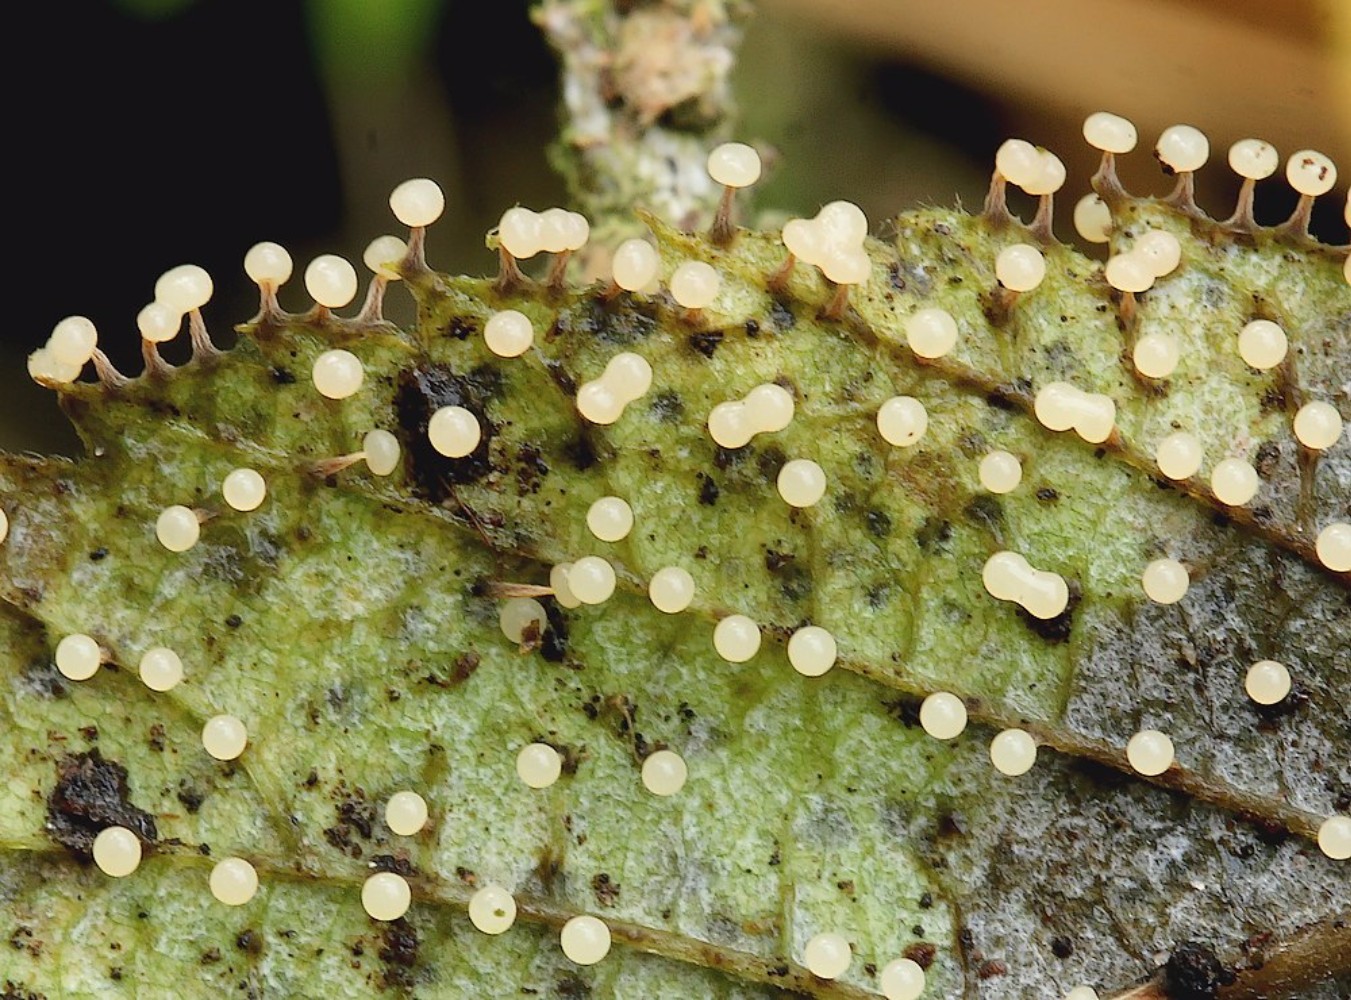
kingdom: Protozoa
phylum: Mycetozoa
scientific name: Mycetozoa
